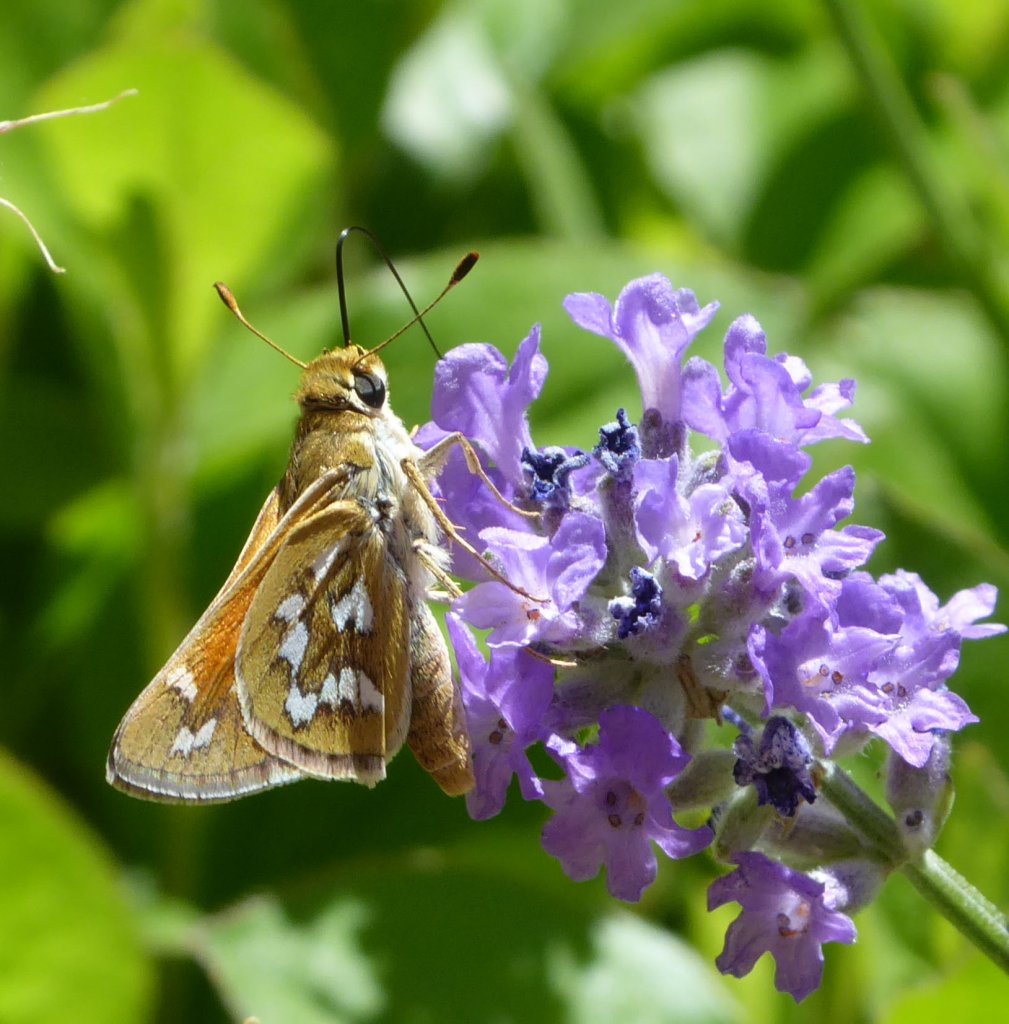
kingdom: Animalia
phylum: Arthropoda
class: Insecta
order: Lepidoptera
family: Hesperiidae
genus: Hesperia
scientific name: Hesperia viridis
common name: Green Skipper
